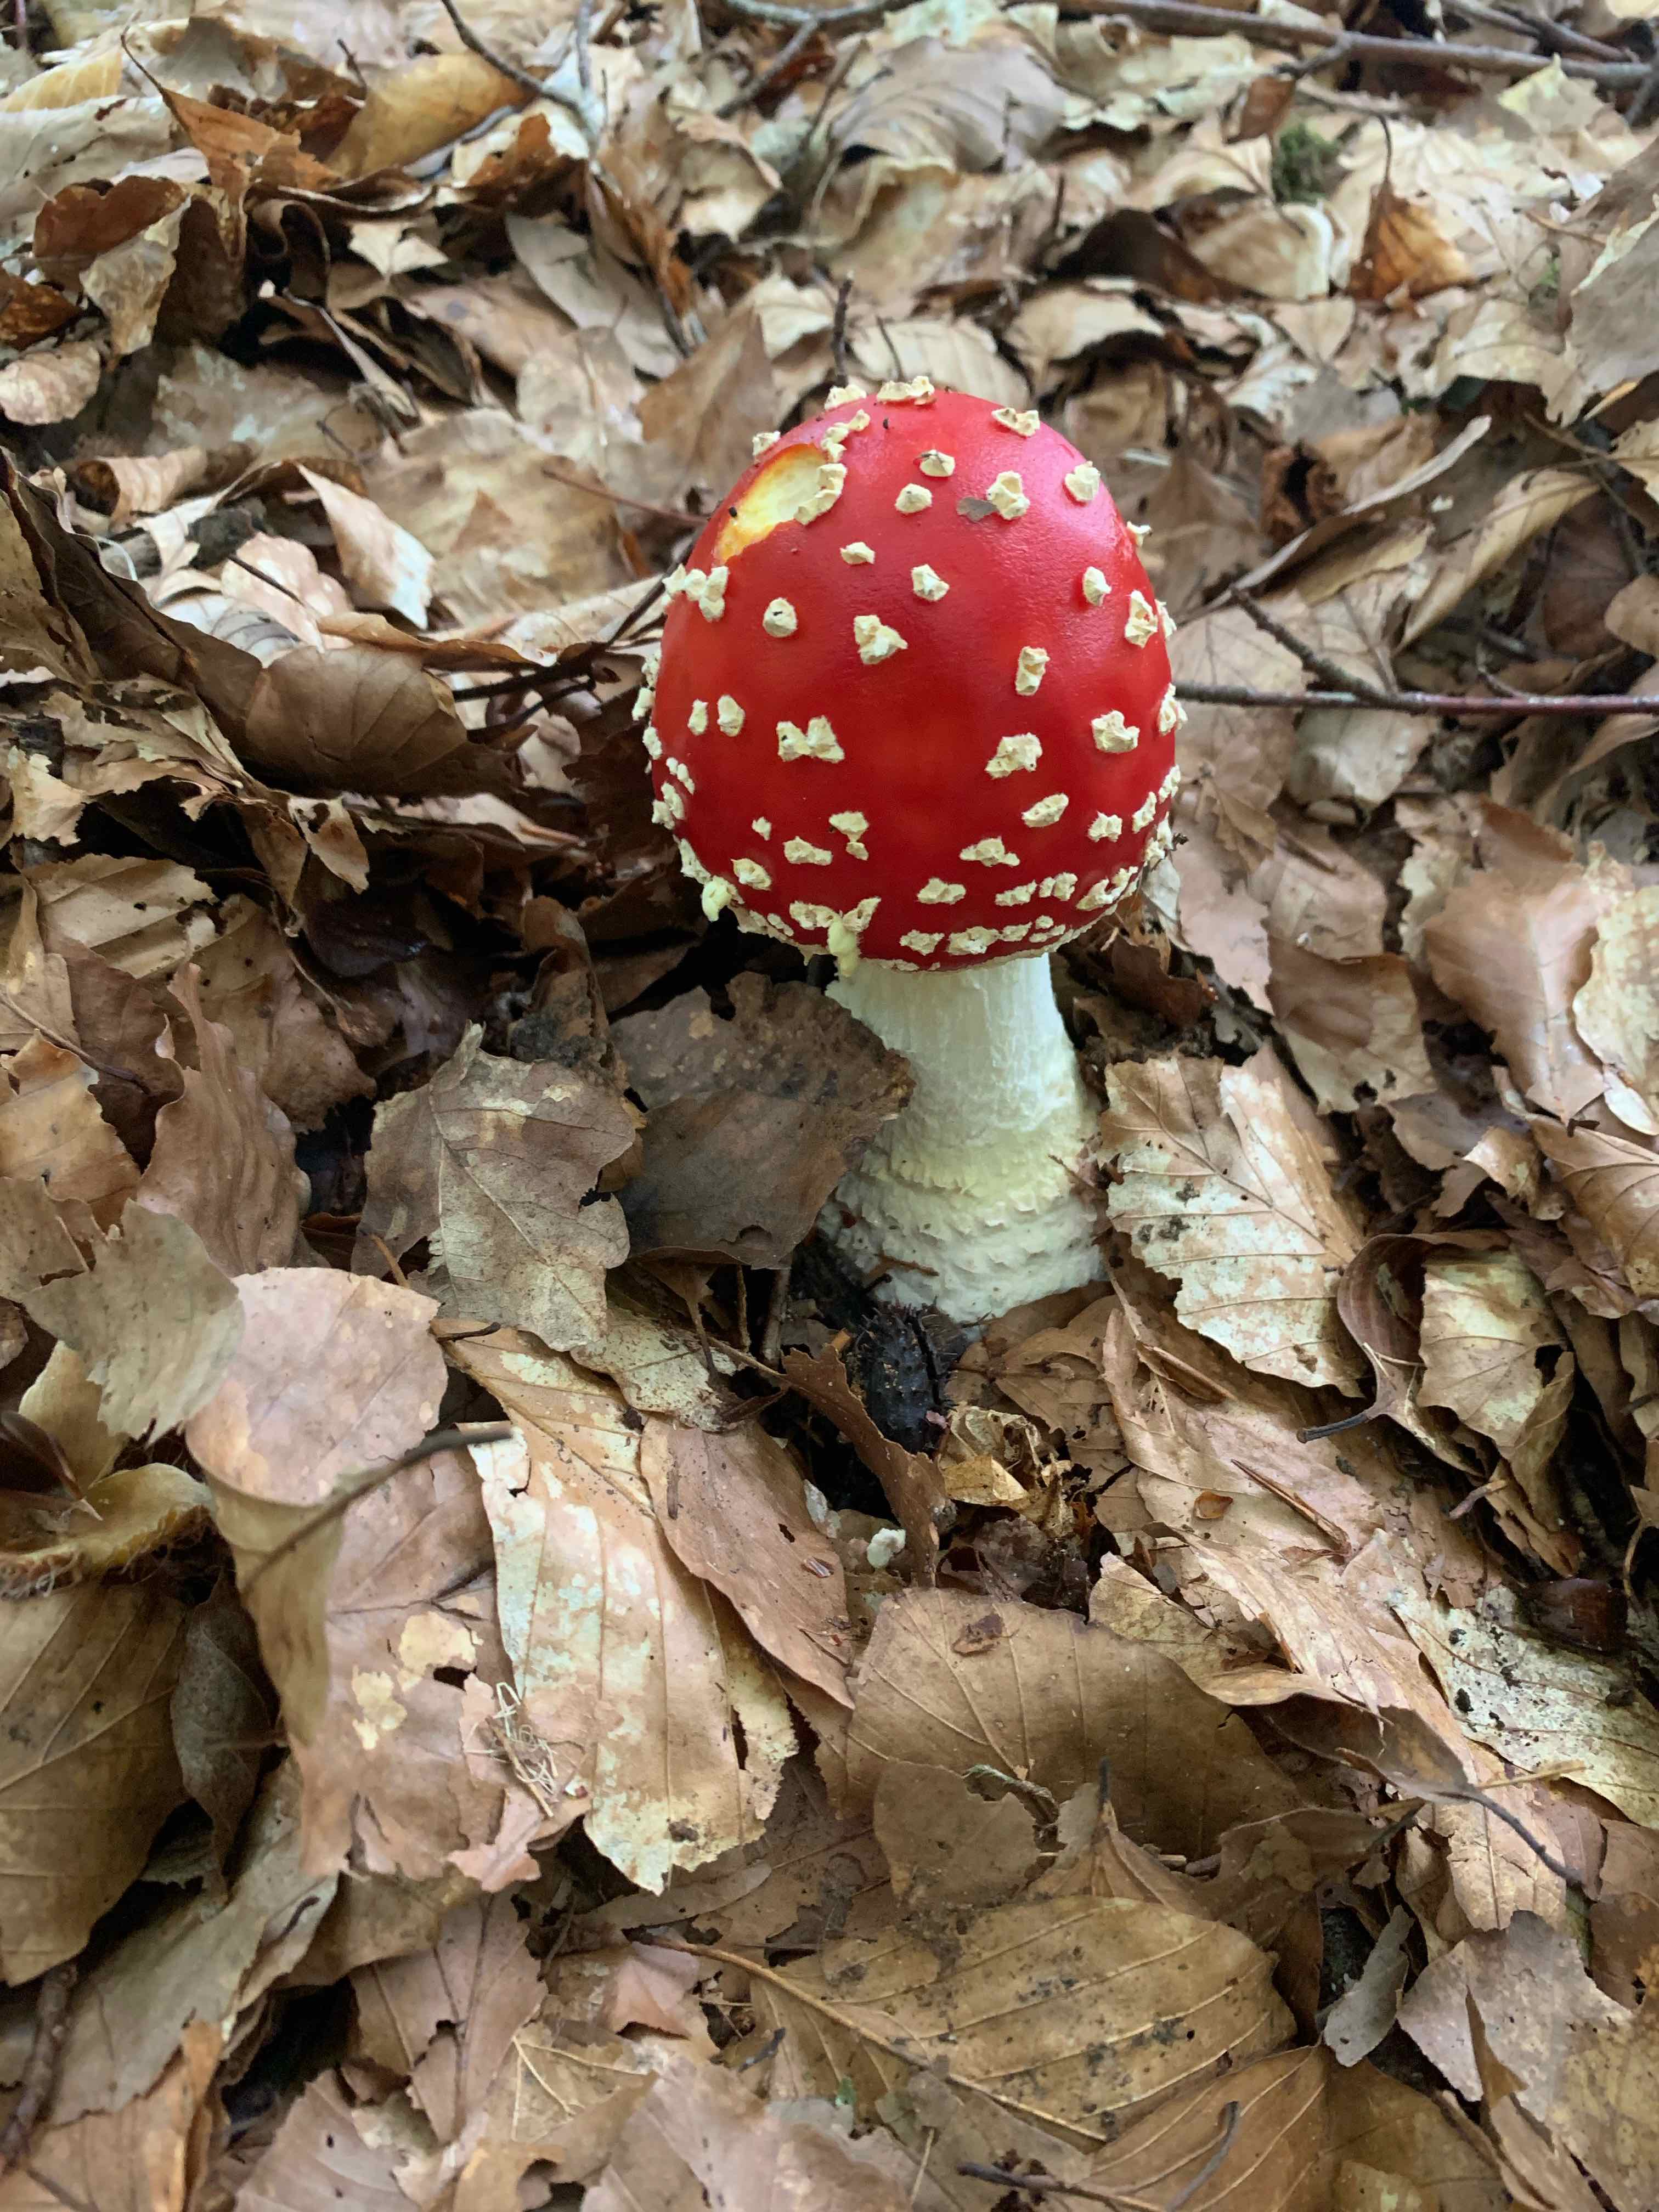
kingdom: Fungi
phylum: Basidiomycota
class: Agaricomycetes
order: Agaricales
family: Amanitaceae
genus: Amanita
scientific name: Amanita muscaria
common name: rød fluesvamp
